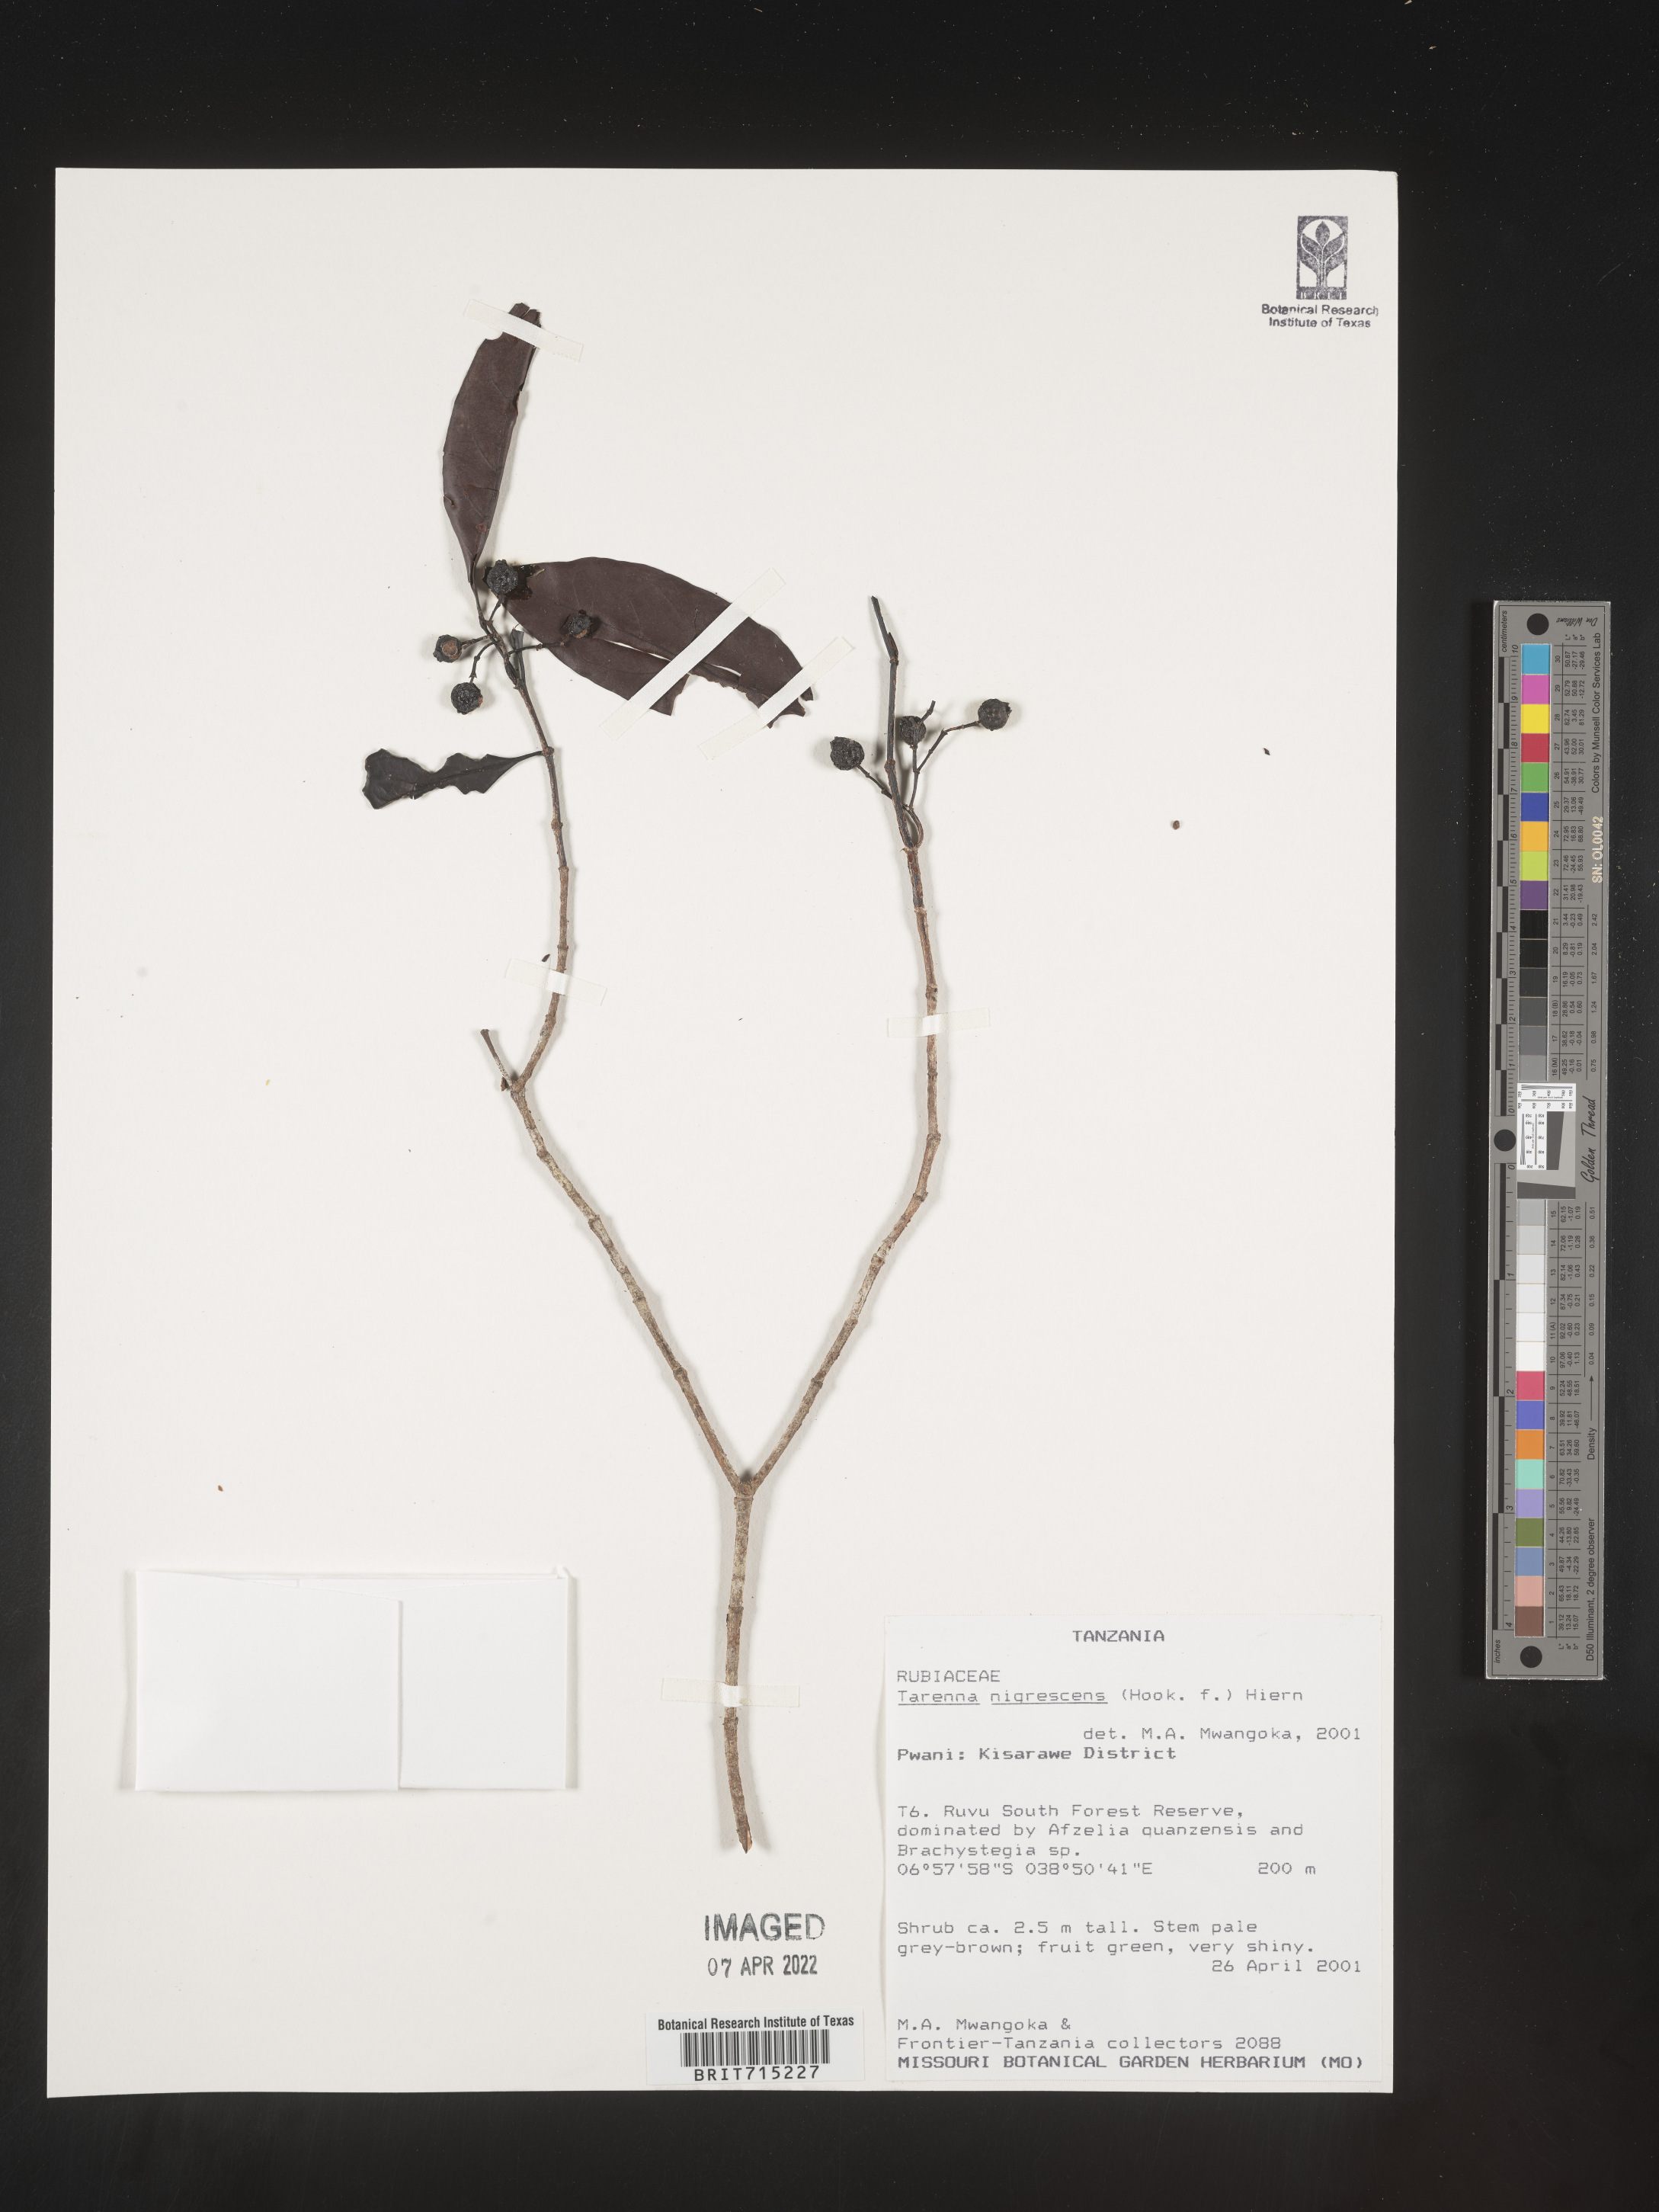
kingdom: Plantae
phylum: Tracheophyta
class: Magnoliopsida
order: Gentianales
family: Rubiaceae
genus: Tarenna
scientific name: Tarenna
